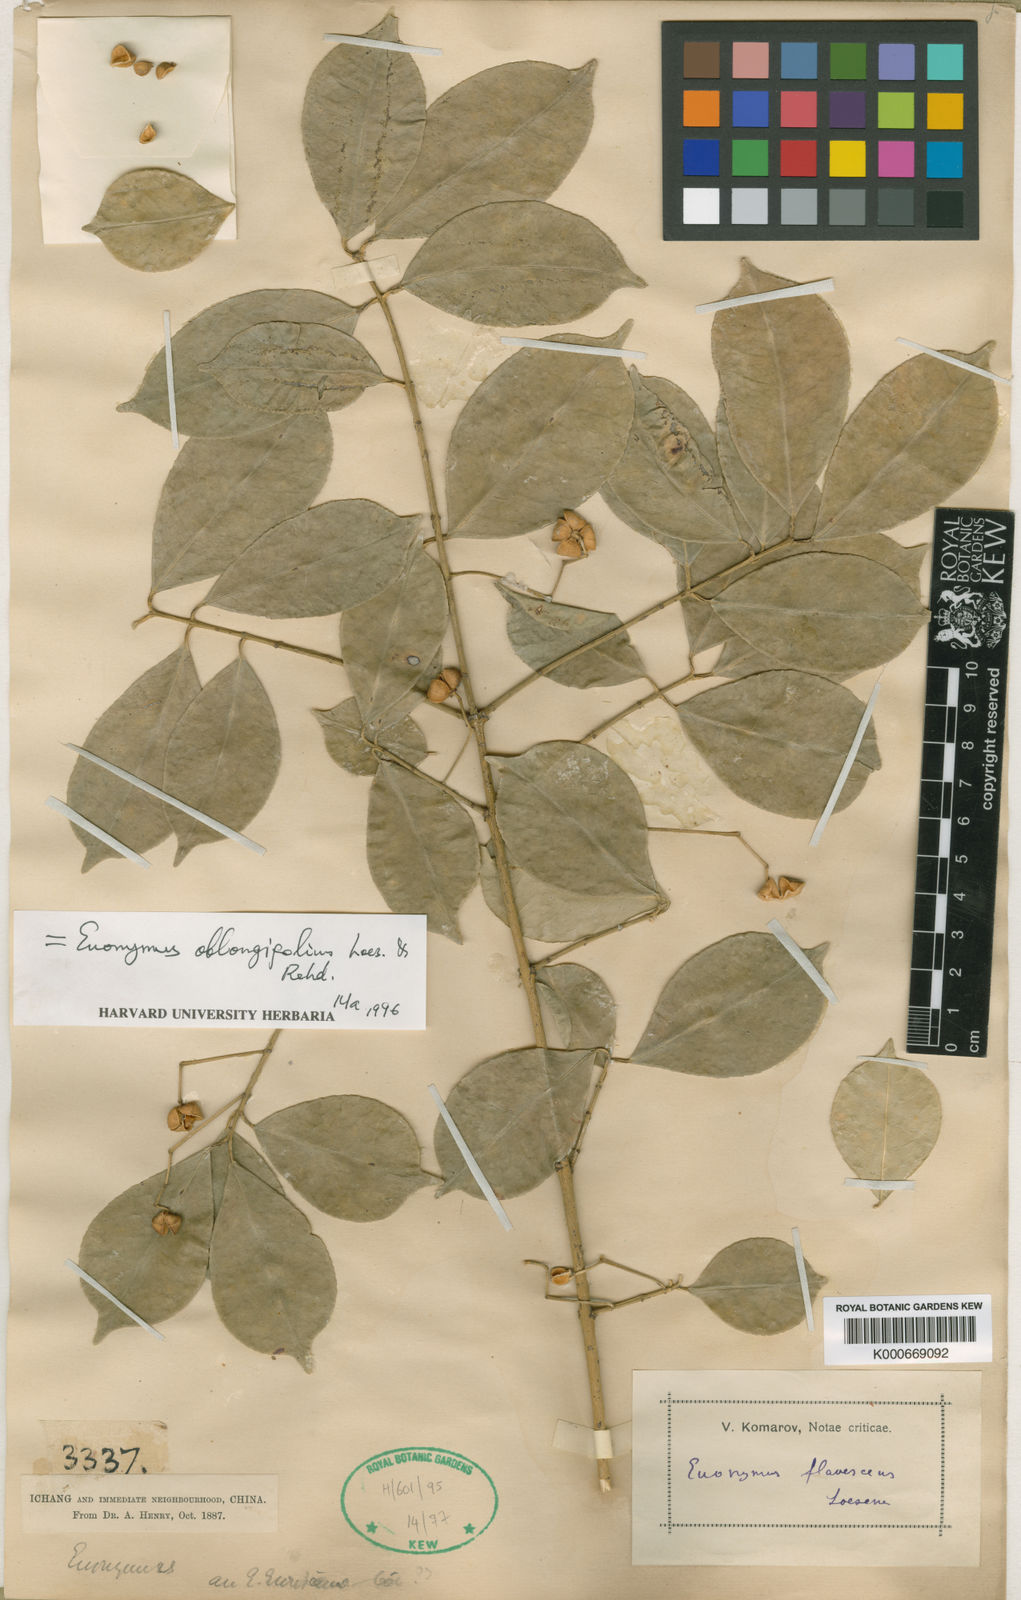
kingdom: Plantae
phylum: Tracheophyta
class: Magnoliopsida
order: Celastrales
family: Celastraceae
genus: Euonymus
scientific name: Euonymus nitidus
